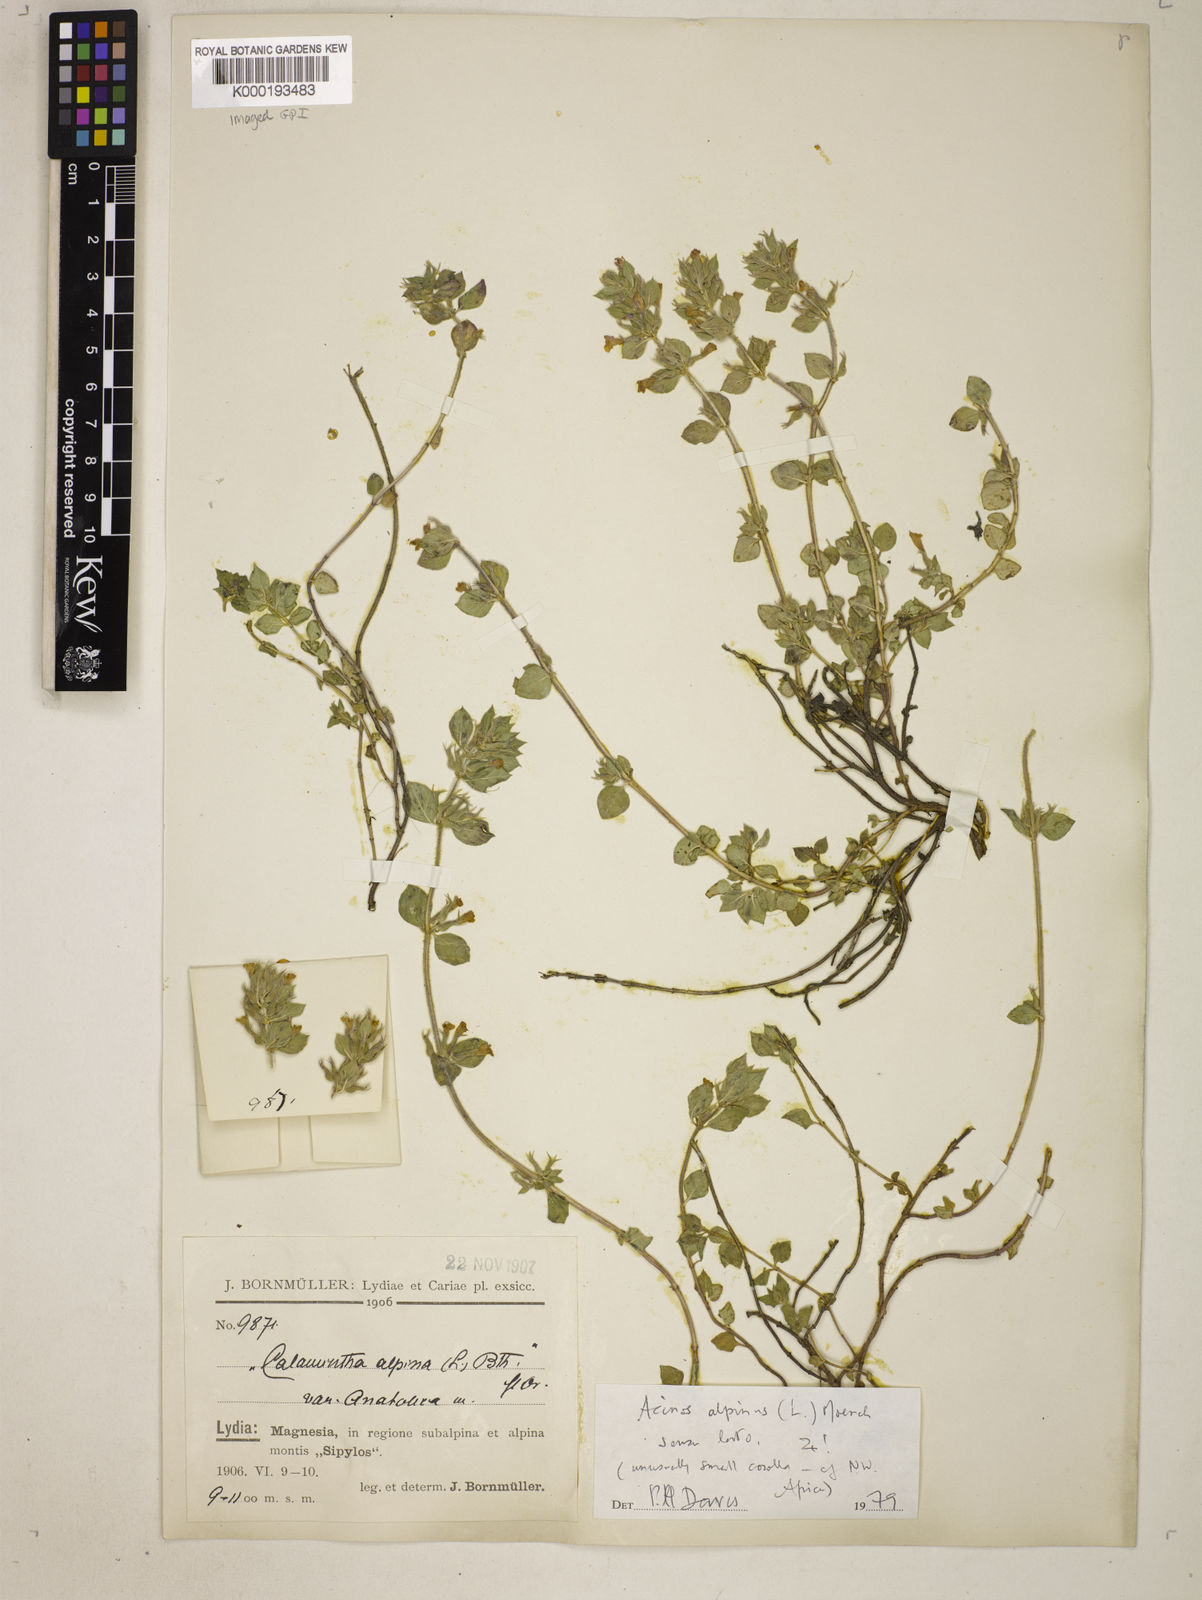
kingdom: Plantae
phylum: Tracheophyta
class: Magnoliopsida
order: Lamiales
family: Lamiaceae
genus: Clinopodium
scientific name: Clinopodium alpinum
